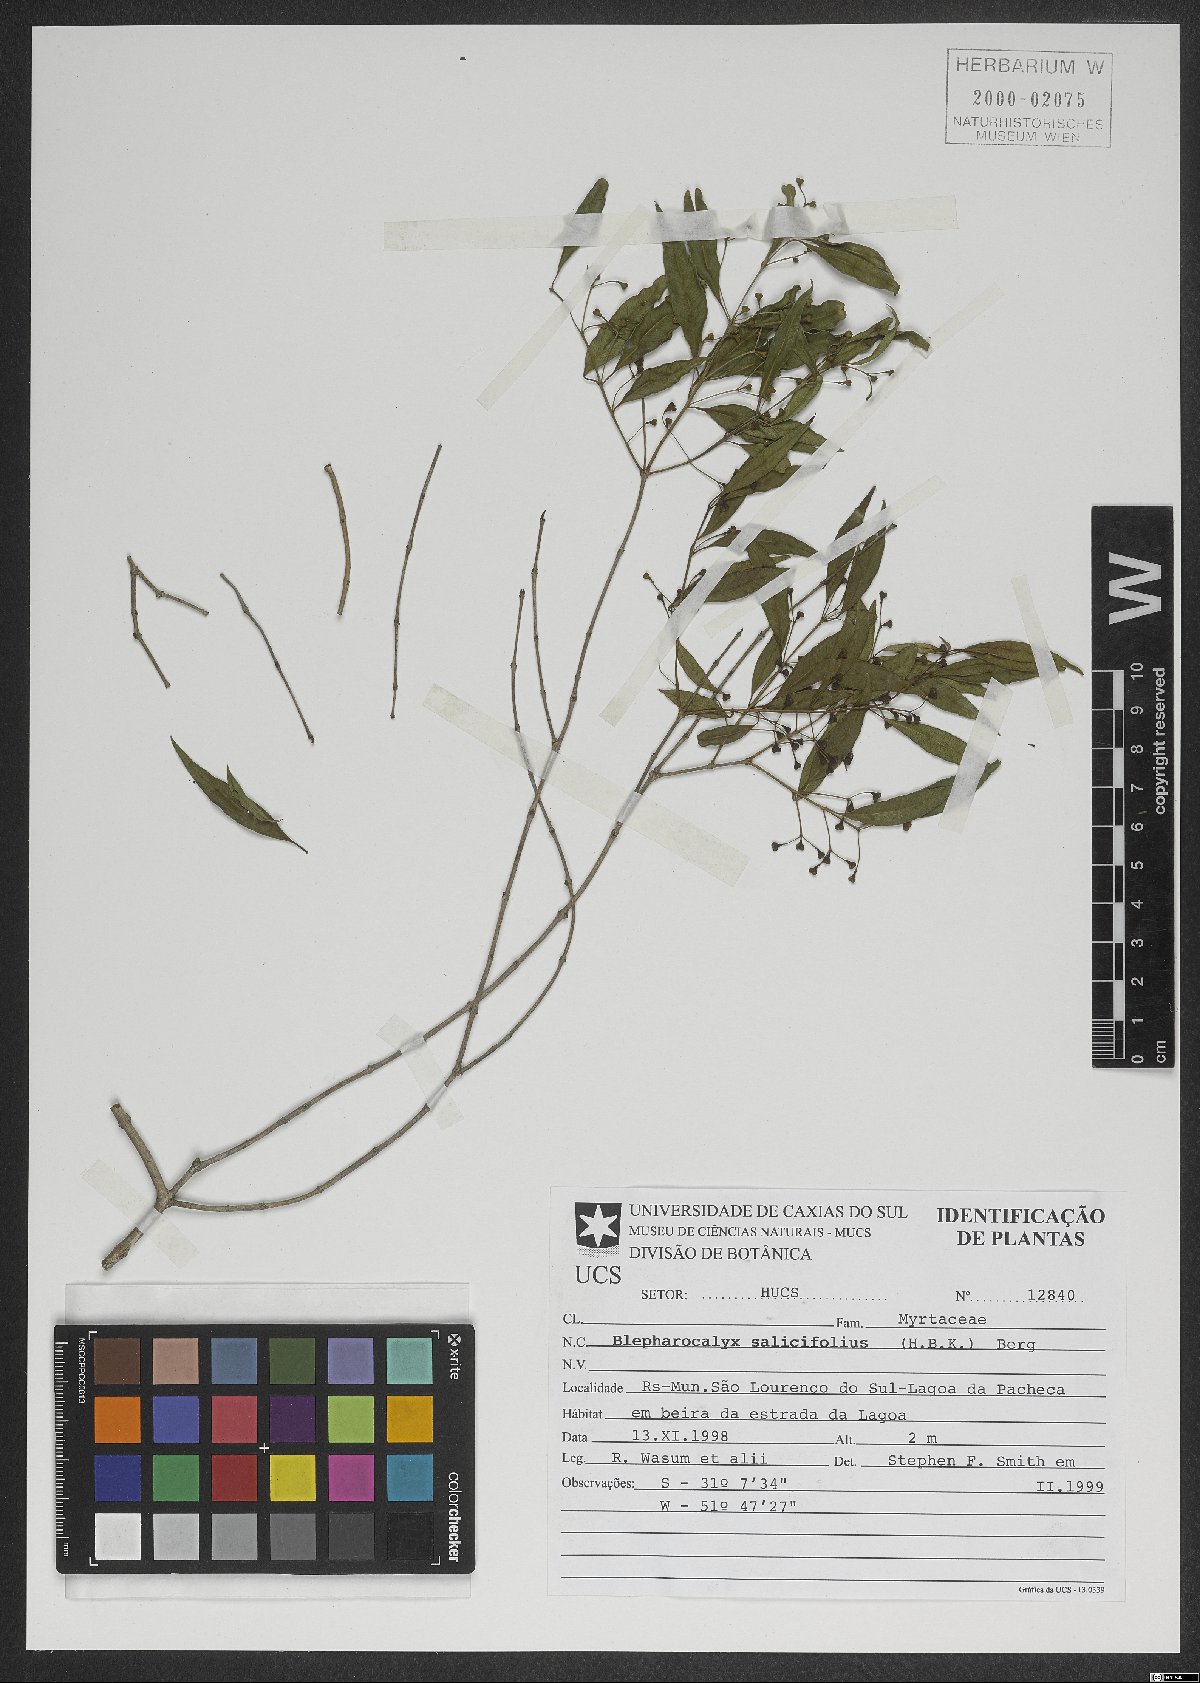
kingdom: Plantae
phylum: Tracheophyta
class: Magnoliopsida
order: Myrtales
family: Myrtaceae
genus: Blepharocalyx
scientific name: Blepharocalyx salicifolius
